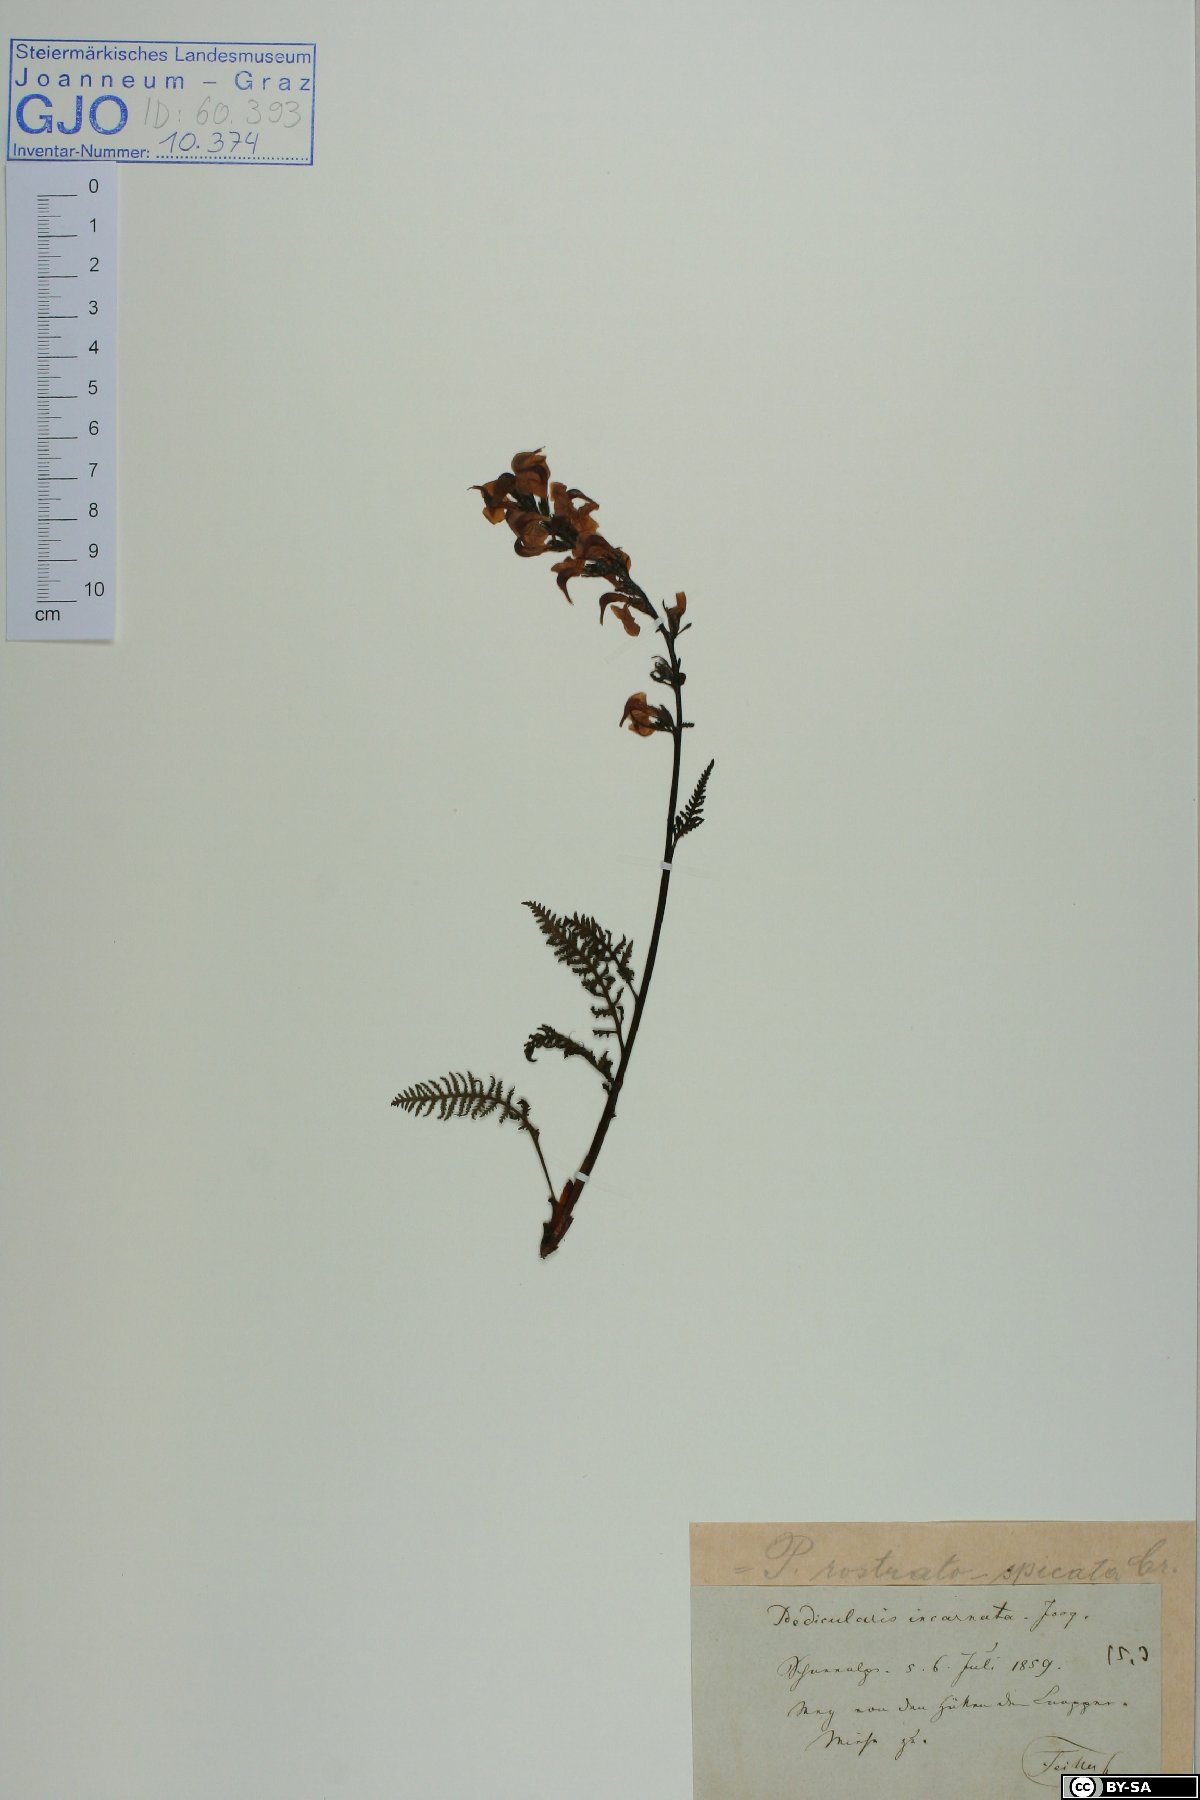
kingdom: Plantae
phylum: Tracheophyta
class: Magnoliopsida
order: Lamiales
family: Orobanchaceae
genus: Pedicularis
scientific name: Pedicularis rostratospicata
